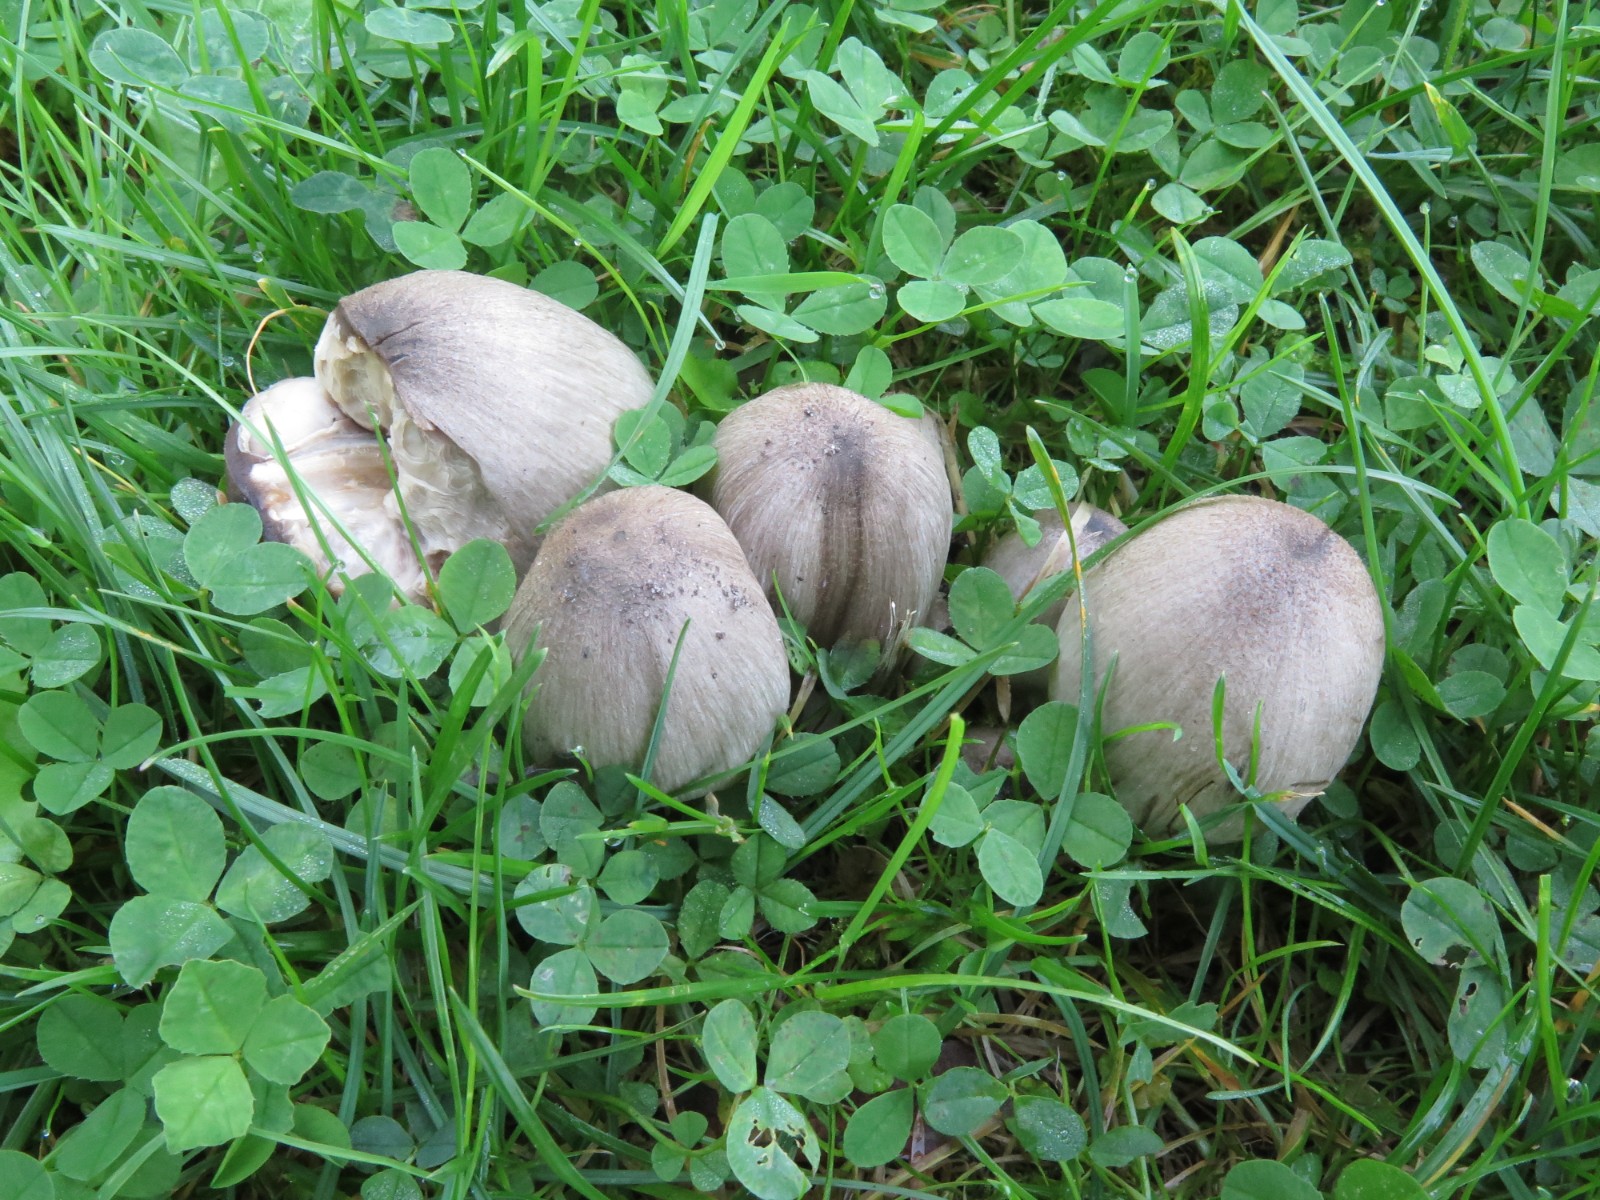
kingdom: Fungi
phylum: Basidiomycota
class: Agaricomycetes
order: Agaricales
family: Psathyrellaceae
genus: Coprinopsis
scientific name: Coprinopsis atramentaria
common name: almindelig blækhat
